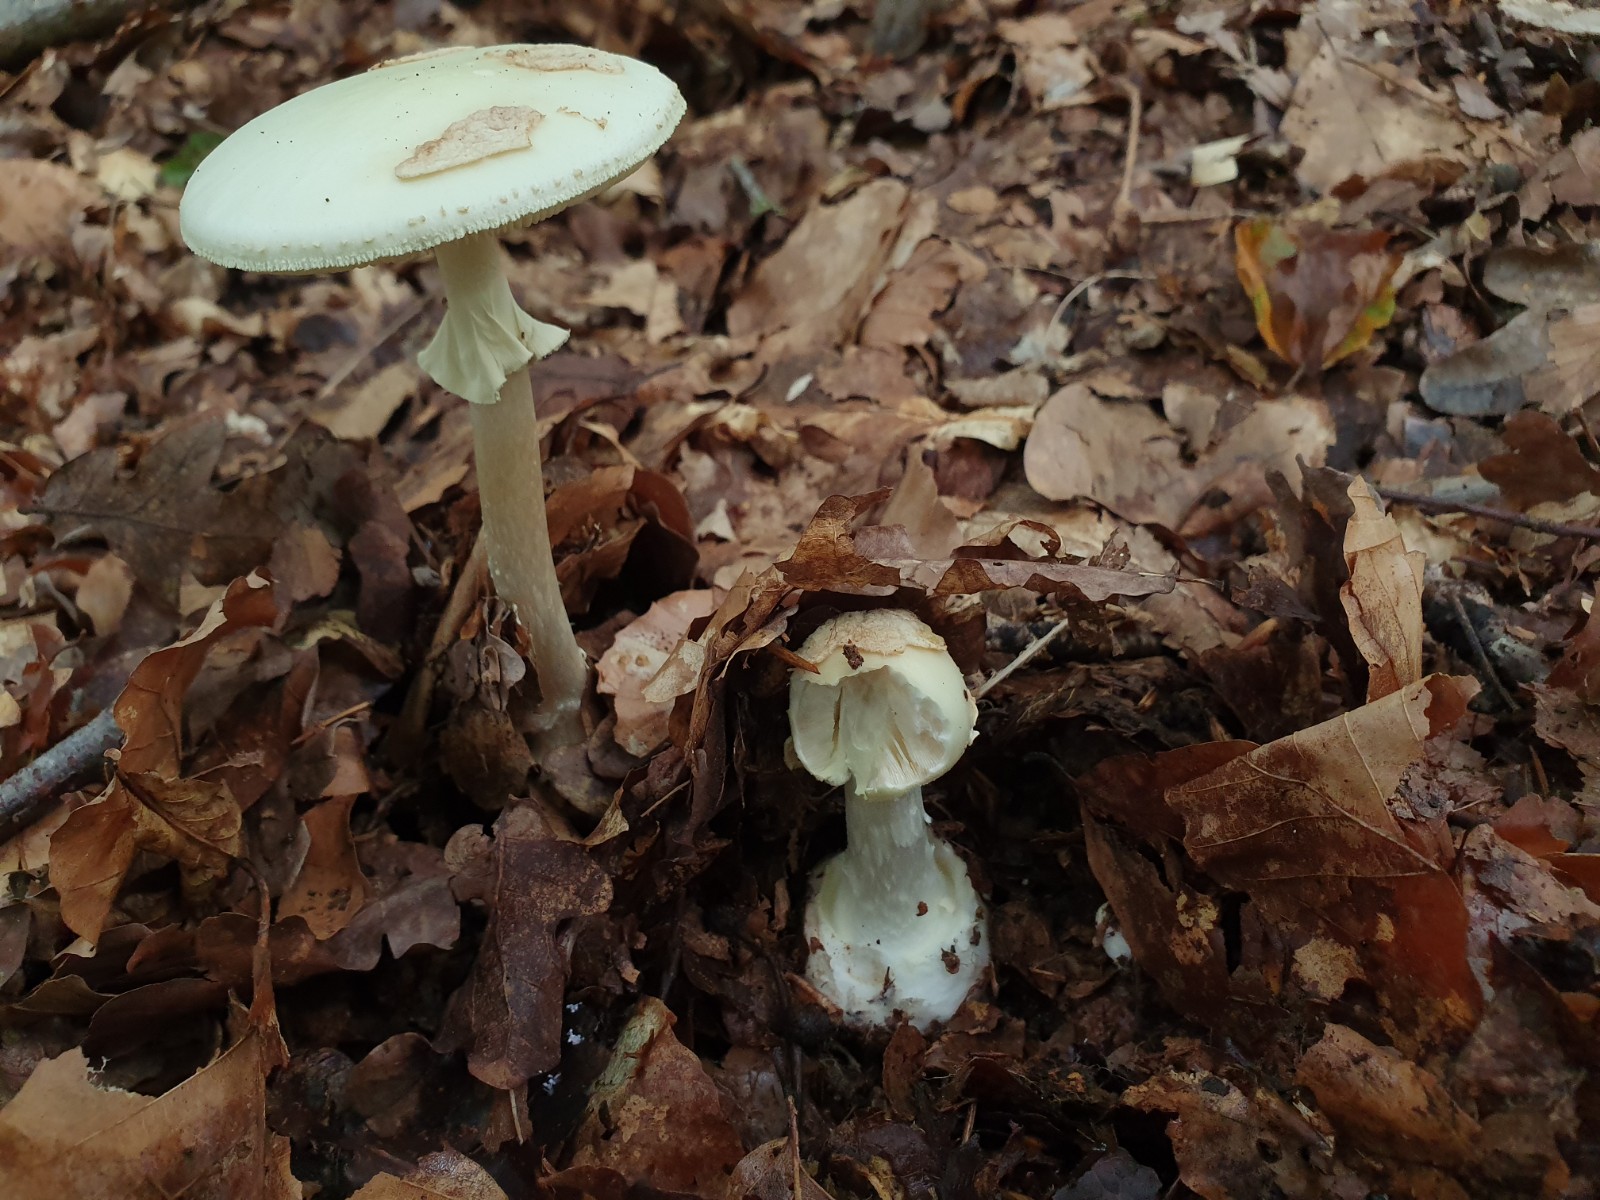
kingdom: Fungi
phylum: Basidiomycota
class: Agaricomycetes
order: Agaricales
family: Amanitaceae
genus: Amanita
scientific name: Amanita citrina
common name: kugleknoldet fluesvamp
